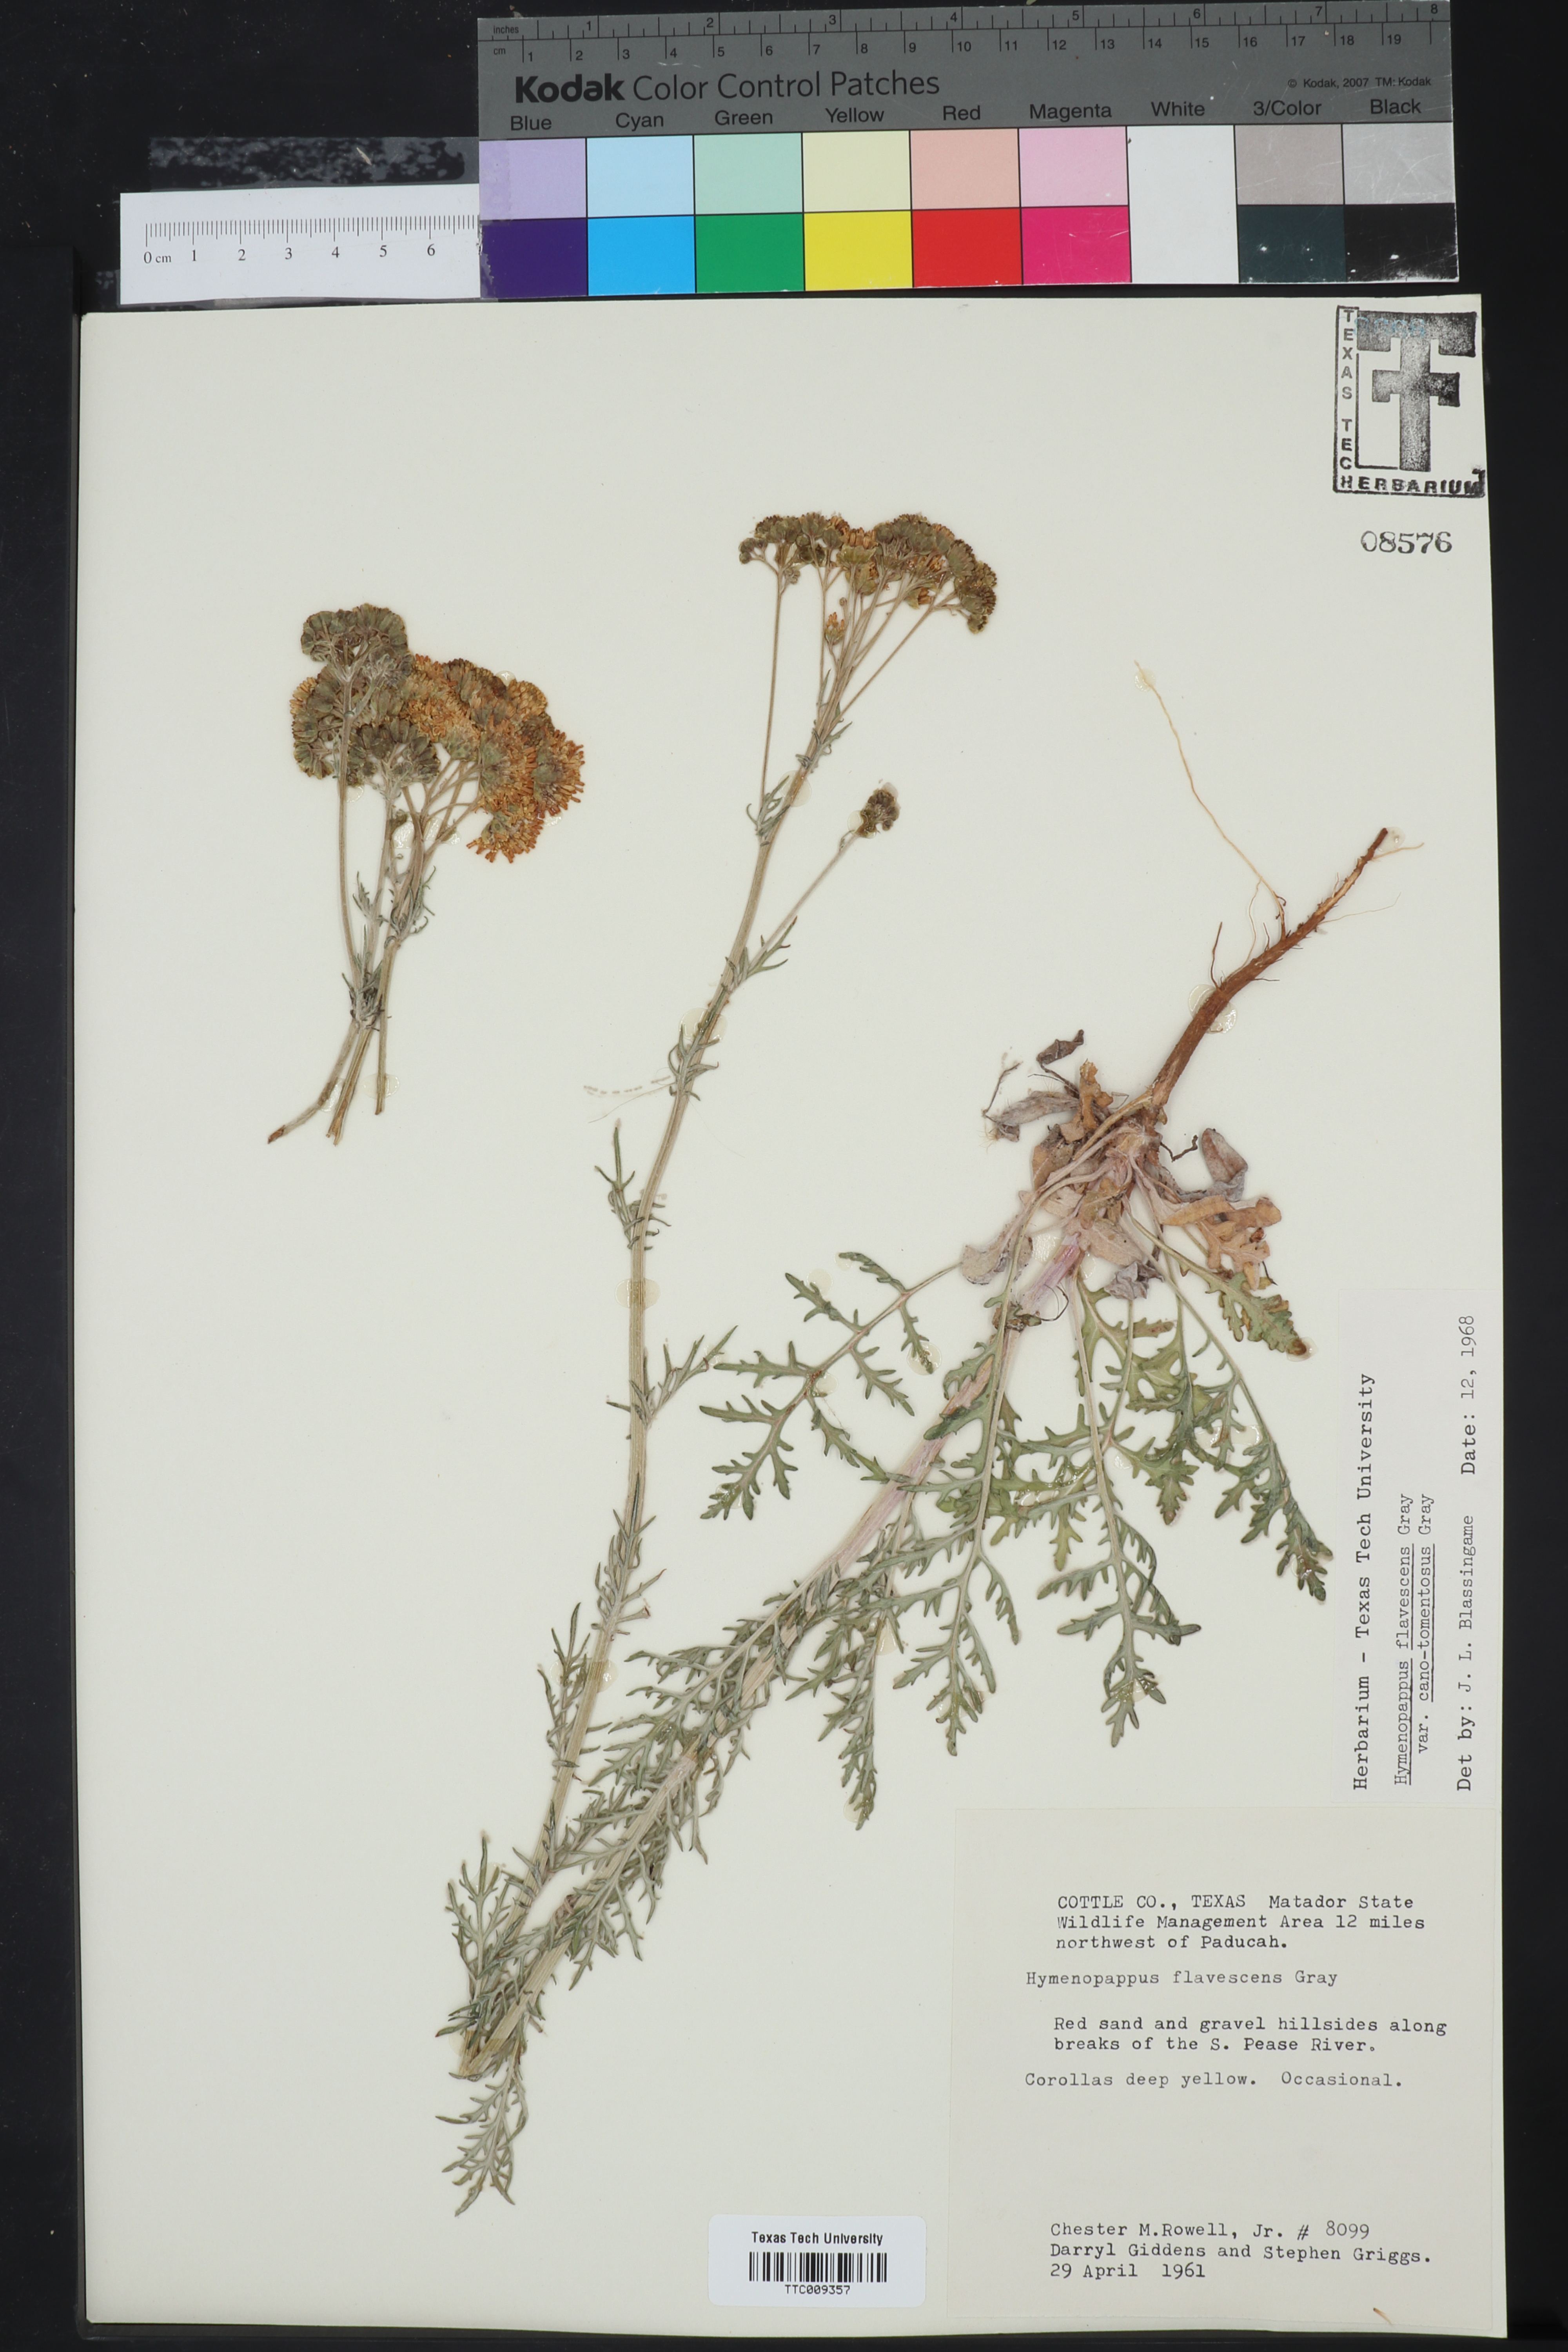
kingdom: Plantae
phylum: Tracheophyta
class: Magnoliopsida
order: Asterales
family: Asteraceae
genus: Hymenopappus
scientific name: Hymenopappus flavescens
